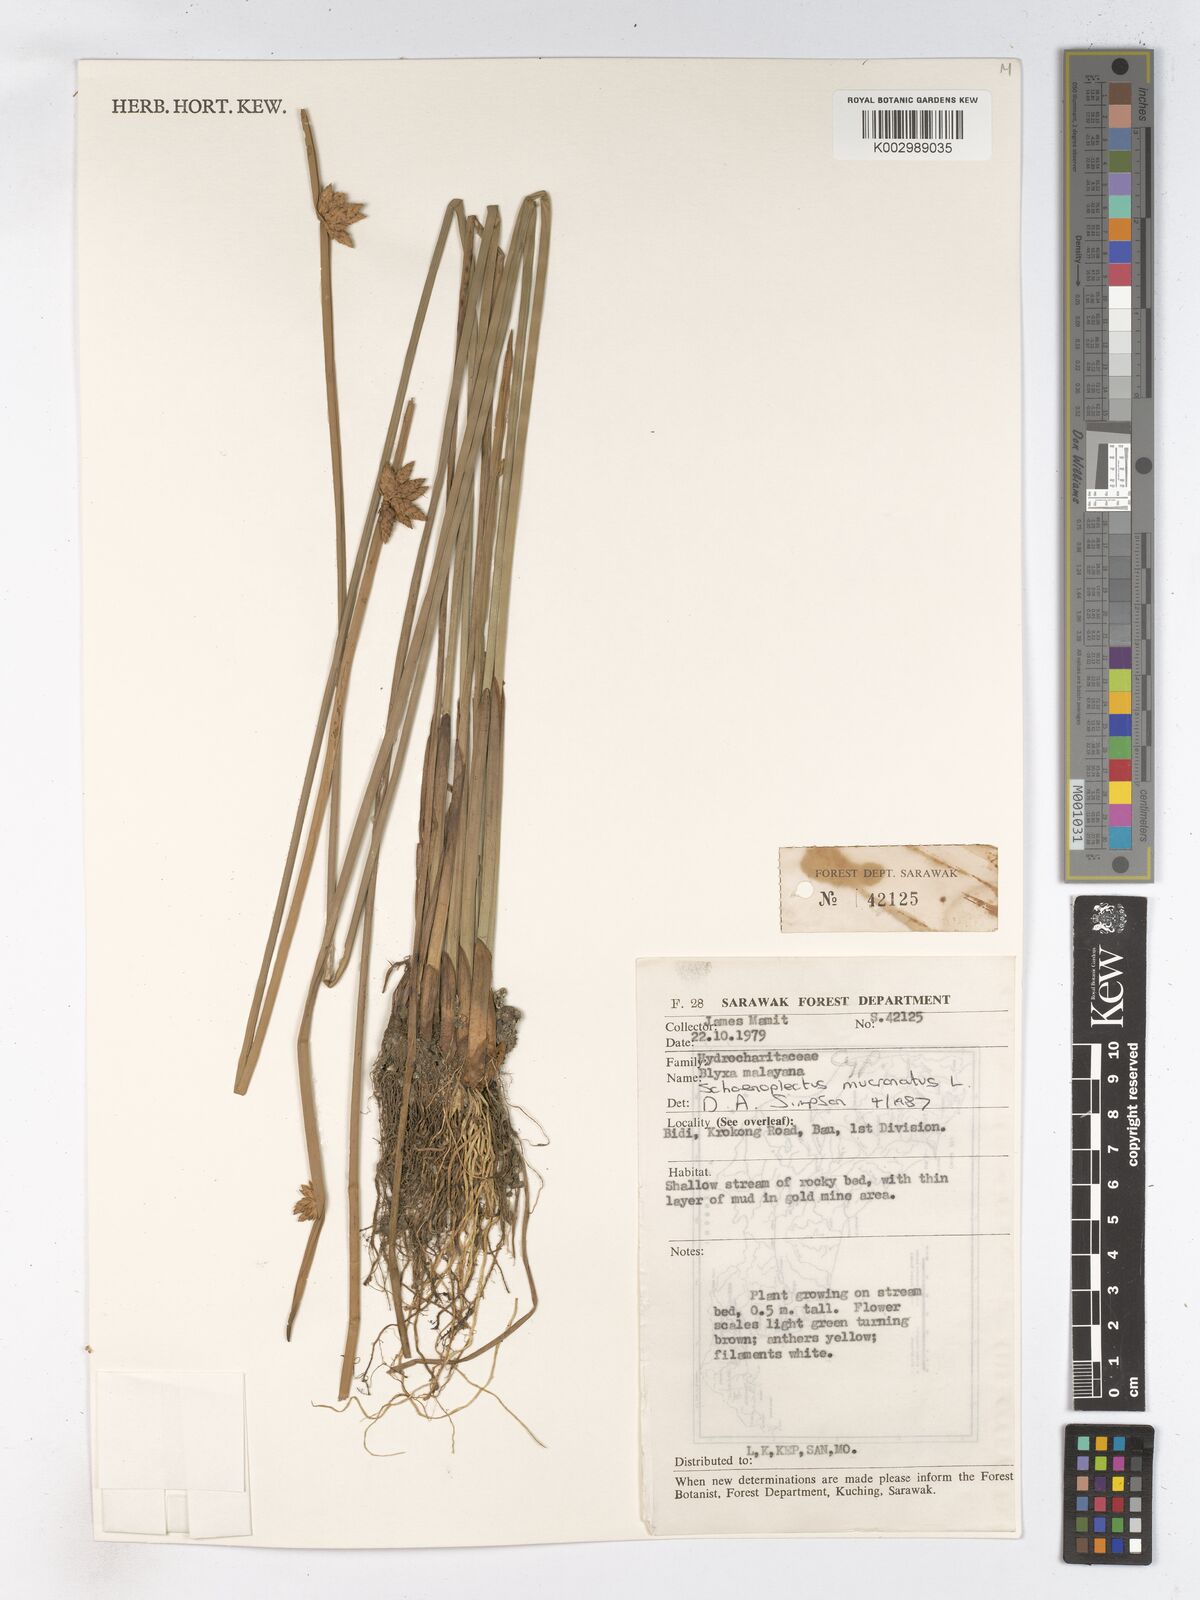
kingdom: Plantae
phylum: Tracheophyta
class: Liliopsida
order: Poales
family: Cyperaceae
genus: Schoenoplectiella
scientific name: Schoenoplectiella mucronata
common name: Bog bulrush
